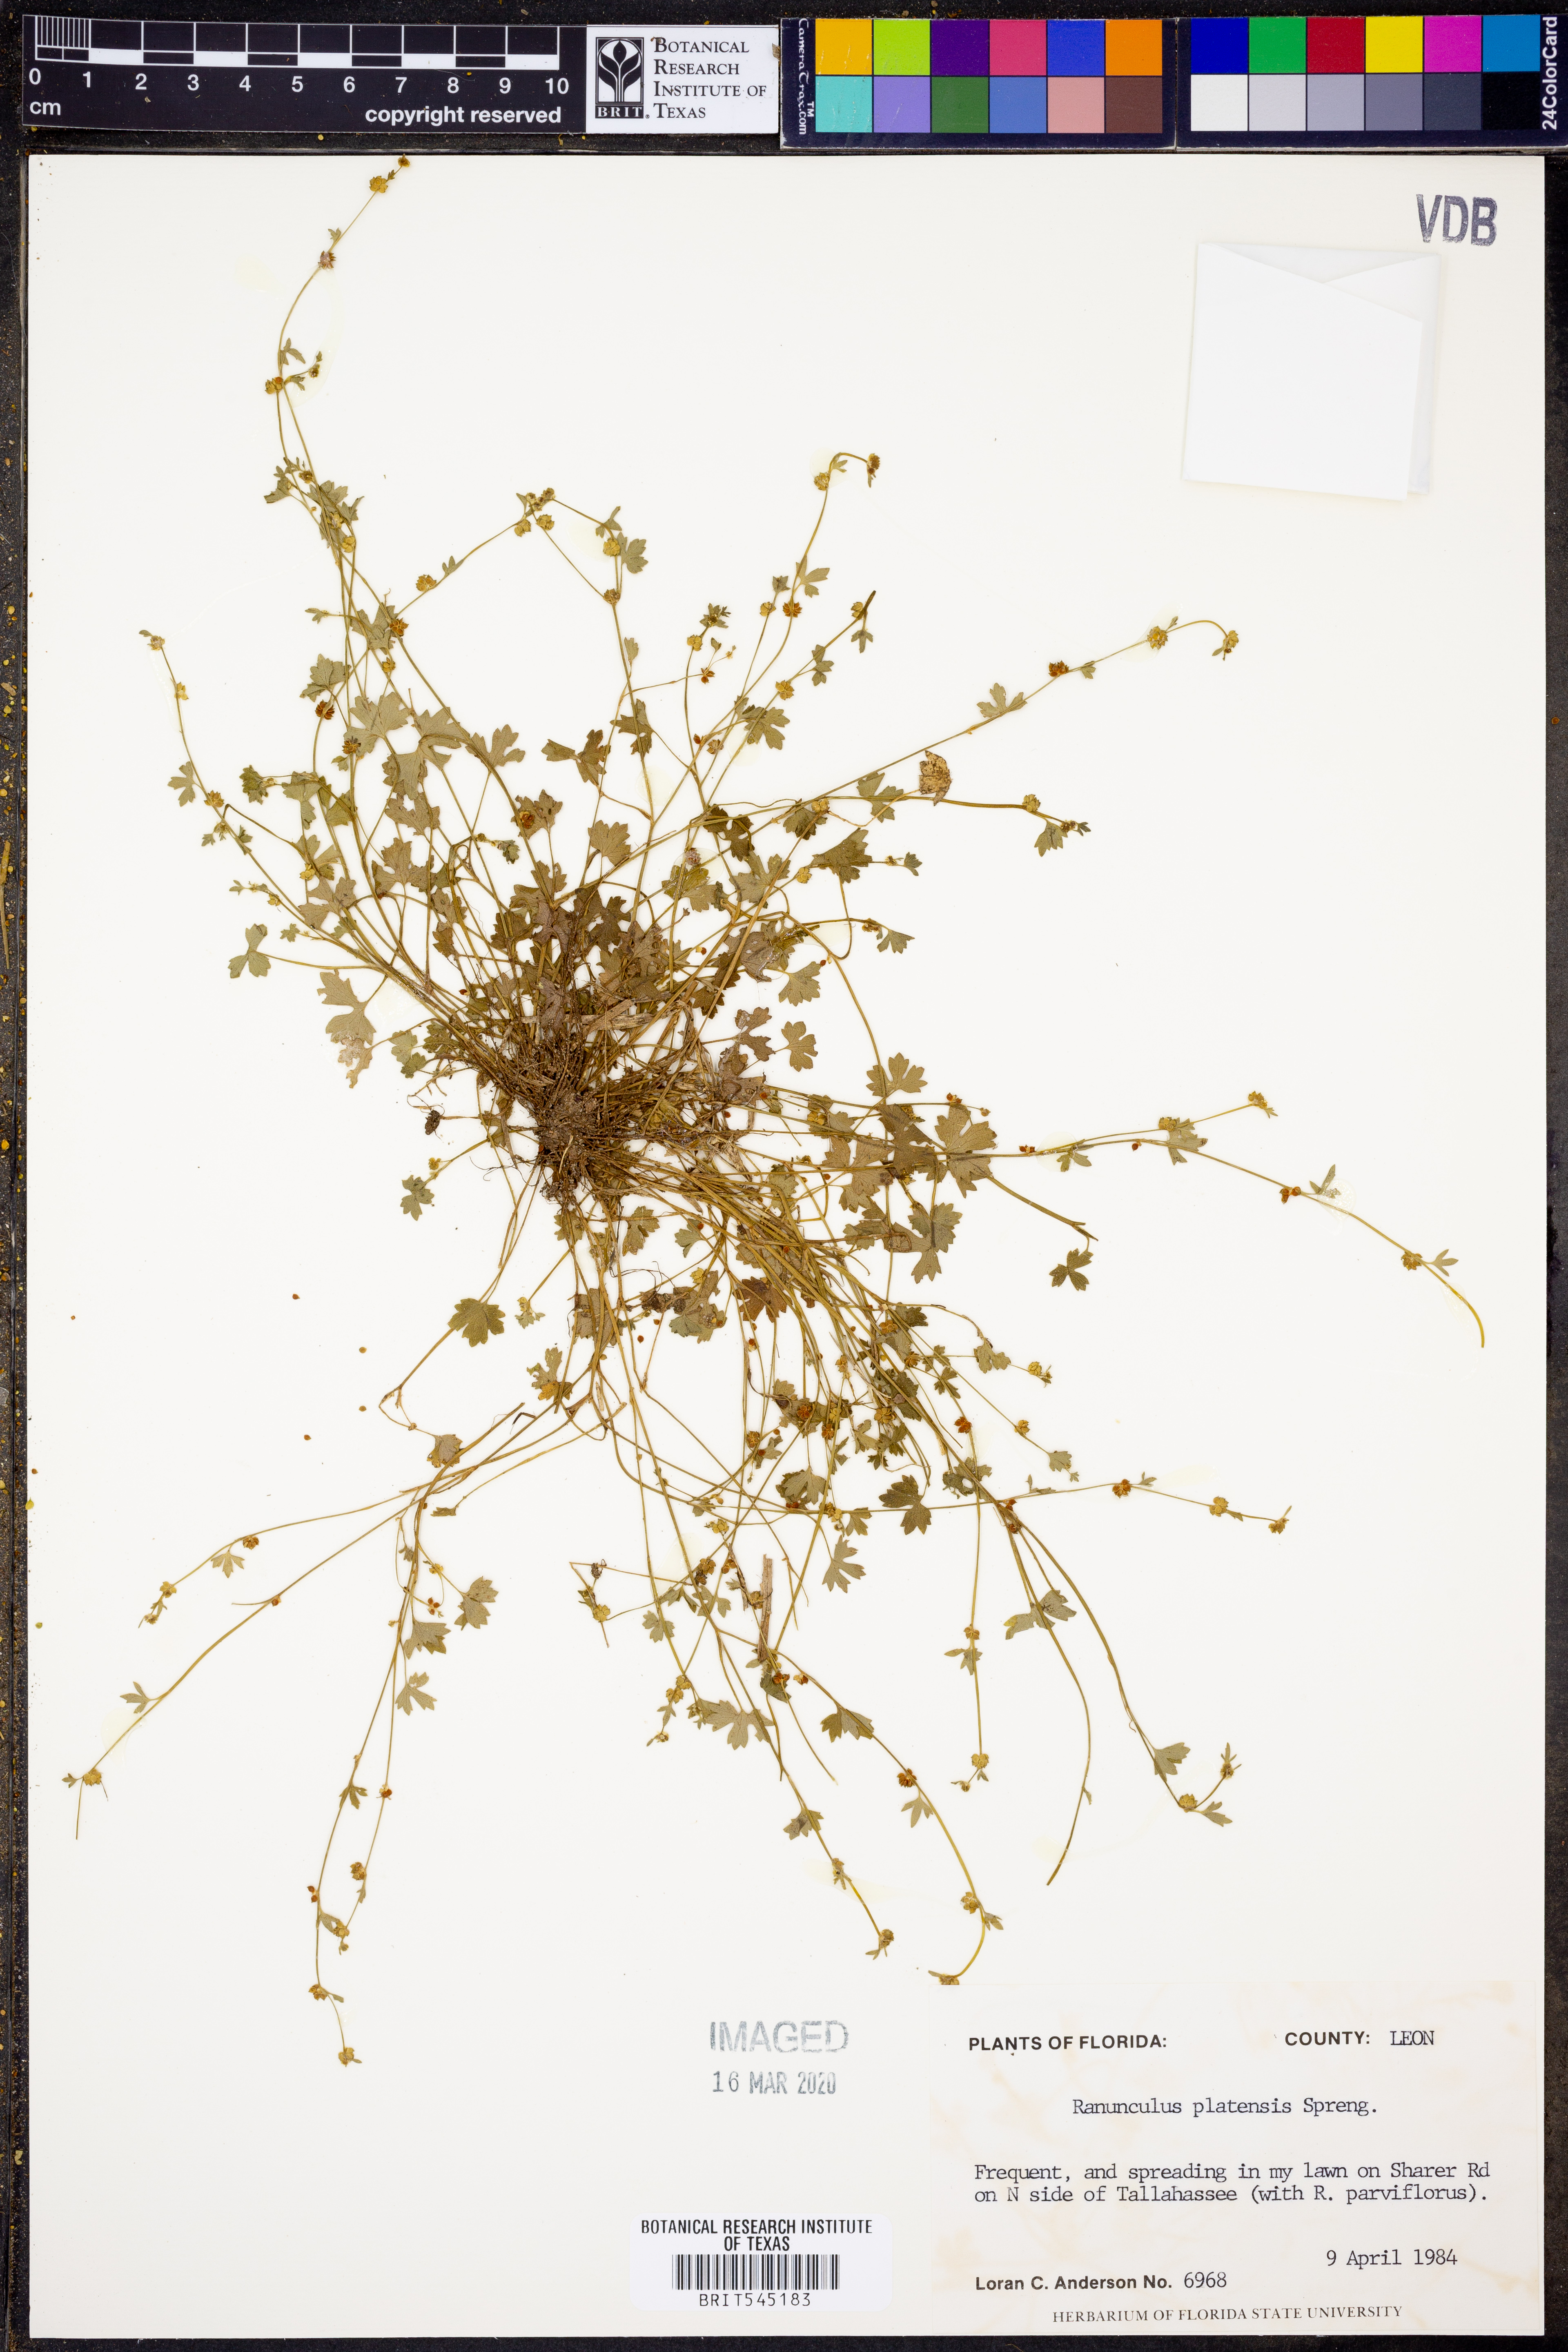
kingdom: Plantae
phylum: Tracheophyta
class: Magnoliopsida
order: Ranunculales
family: Ranunculaceae
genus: Ranunculus
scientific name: Ranunculus platensis
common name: Prairie buttercup
